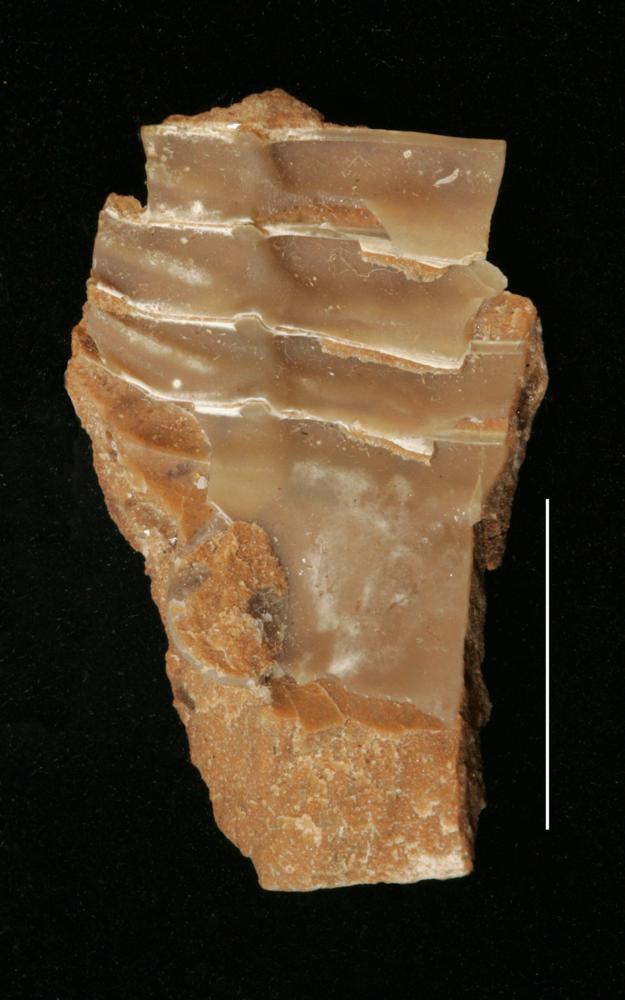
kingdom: Animalia
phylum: Arthropoda
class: Trilobita
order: Asaphida
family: Asaphidae
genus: Asaphus
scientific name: Asaphus nieszkowskii
